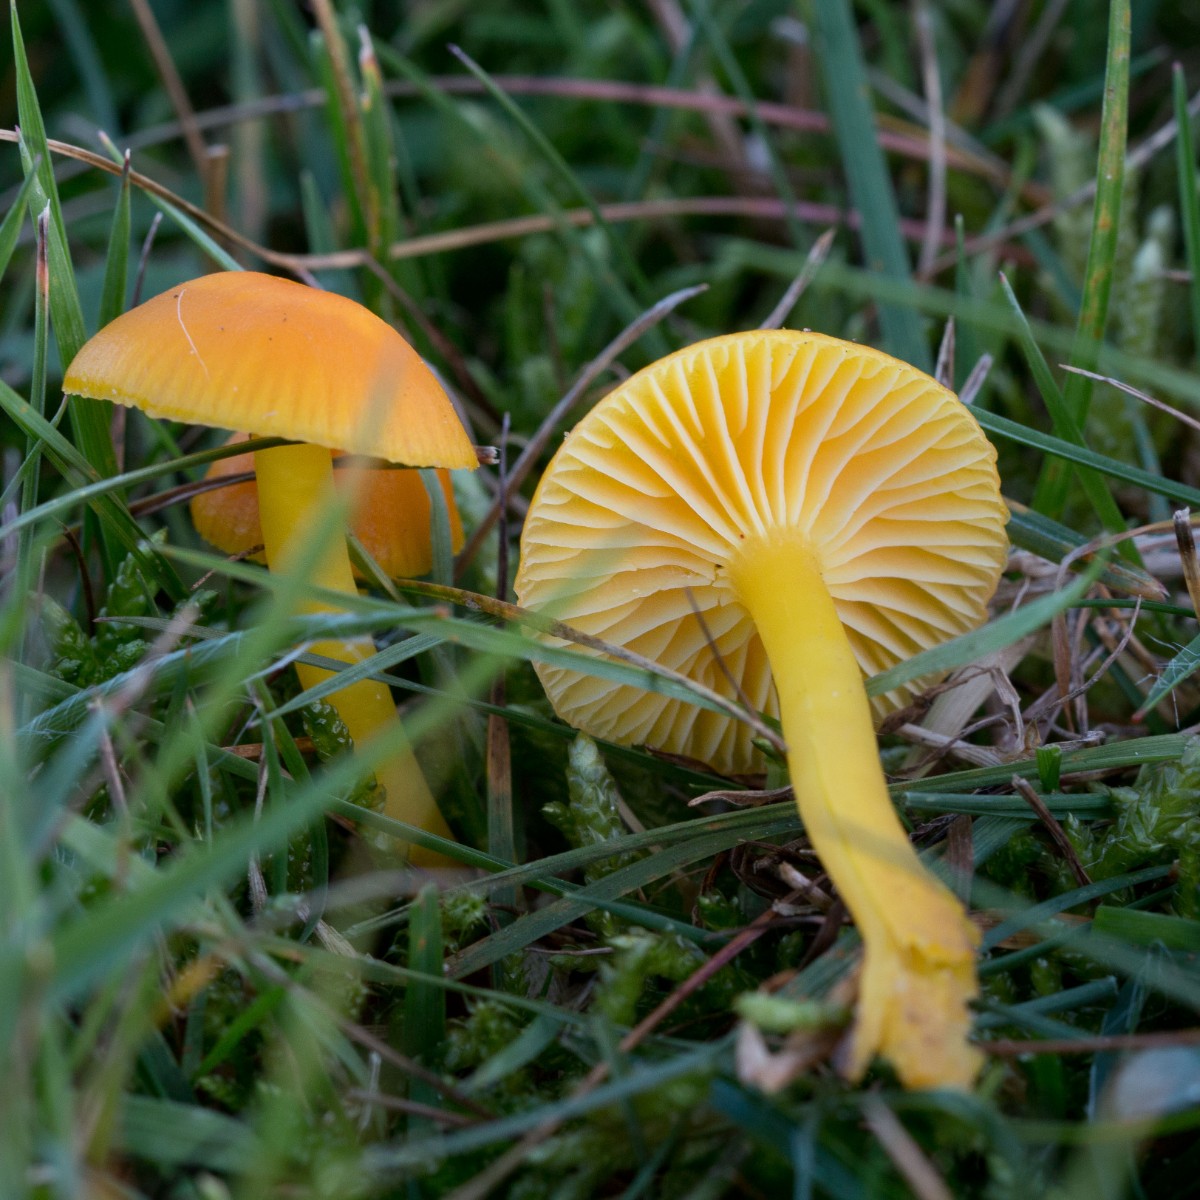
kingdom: Fungi
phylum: Basidiomycota
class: Agaricomycetes
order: Agaricales
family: Hygrophoraceae
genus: Hygrocybe
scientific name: Hygrocybe ceracea
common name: voksgul vokshat
